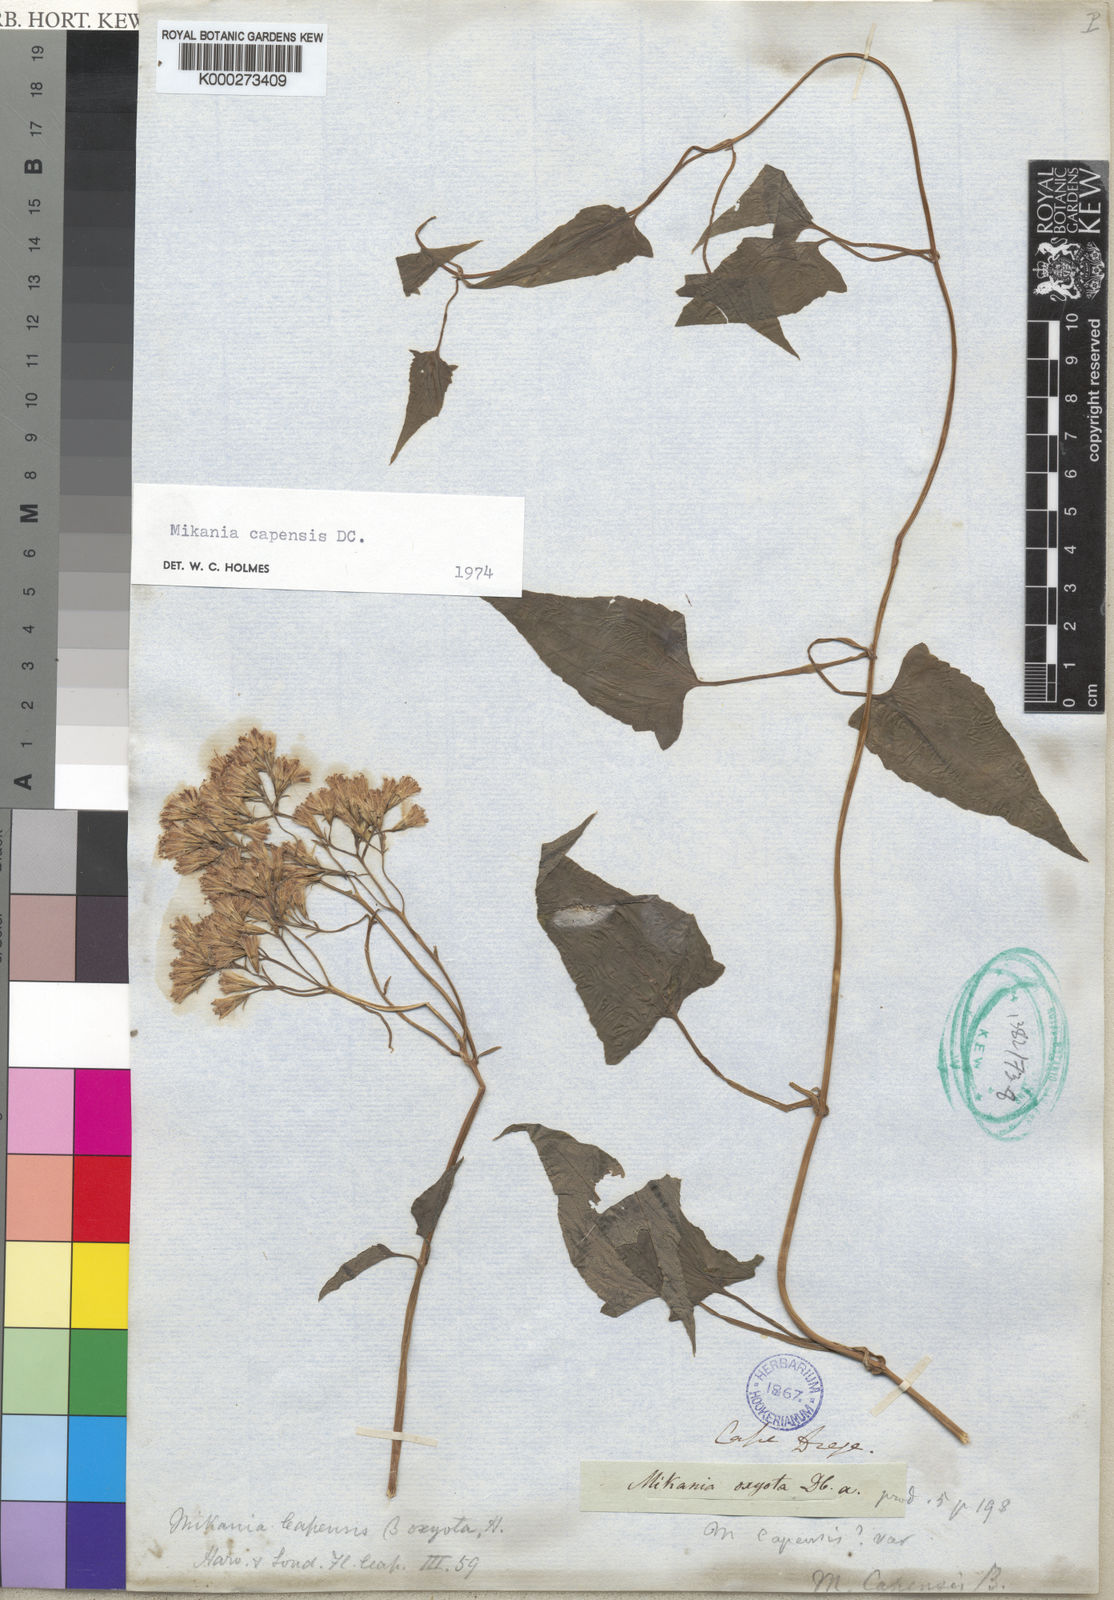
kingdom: Plantae
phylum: Tracheophyta
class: Magnoliopsida
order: Asterales
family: Asteraceae
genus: Mikania
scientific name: Mikania chenopodifolia
